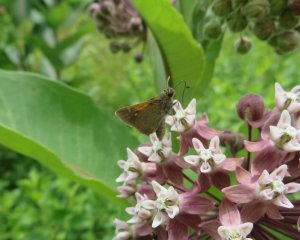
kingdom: Animalia
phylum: Arthropoda
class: Insecta
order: Lepidoptera
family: Hesperiidae
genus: Polites
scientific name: Polites themistocles
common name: Tawny-edged Skipper
